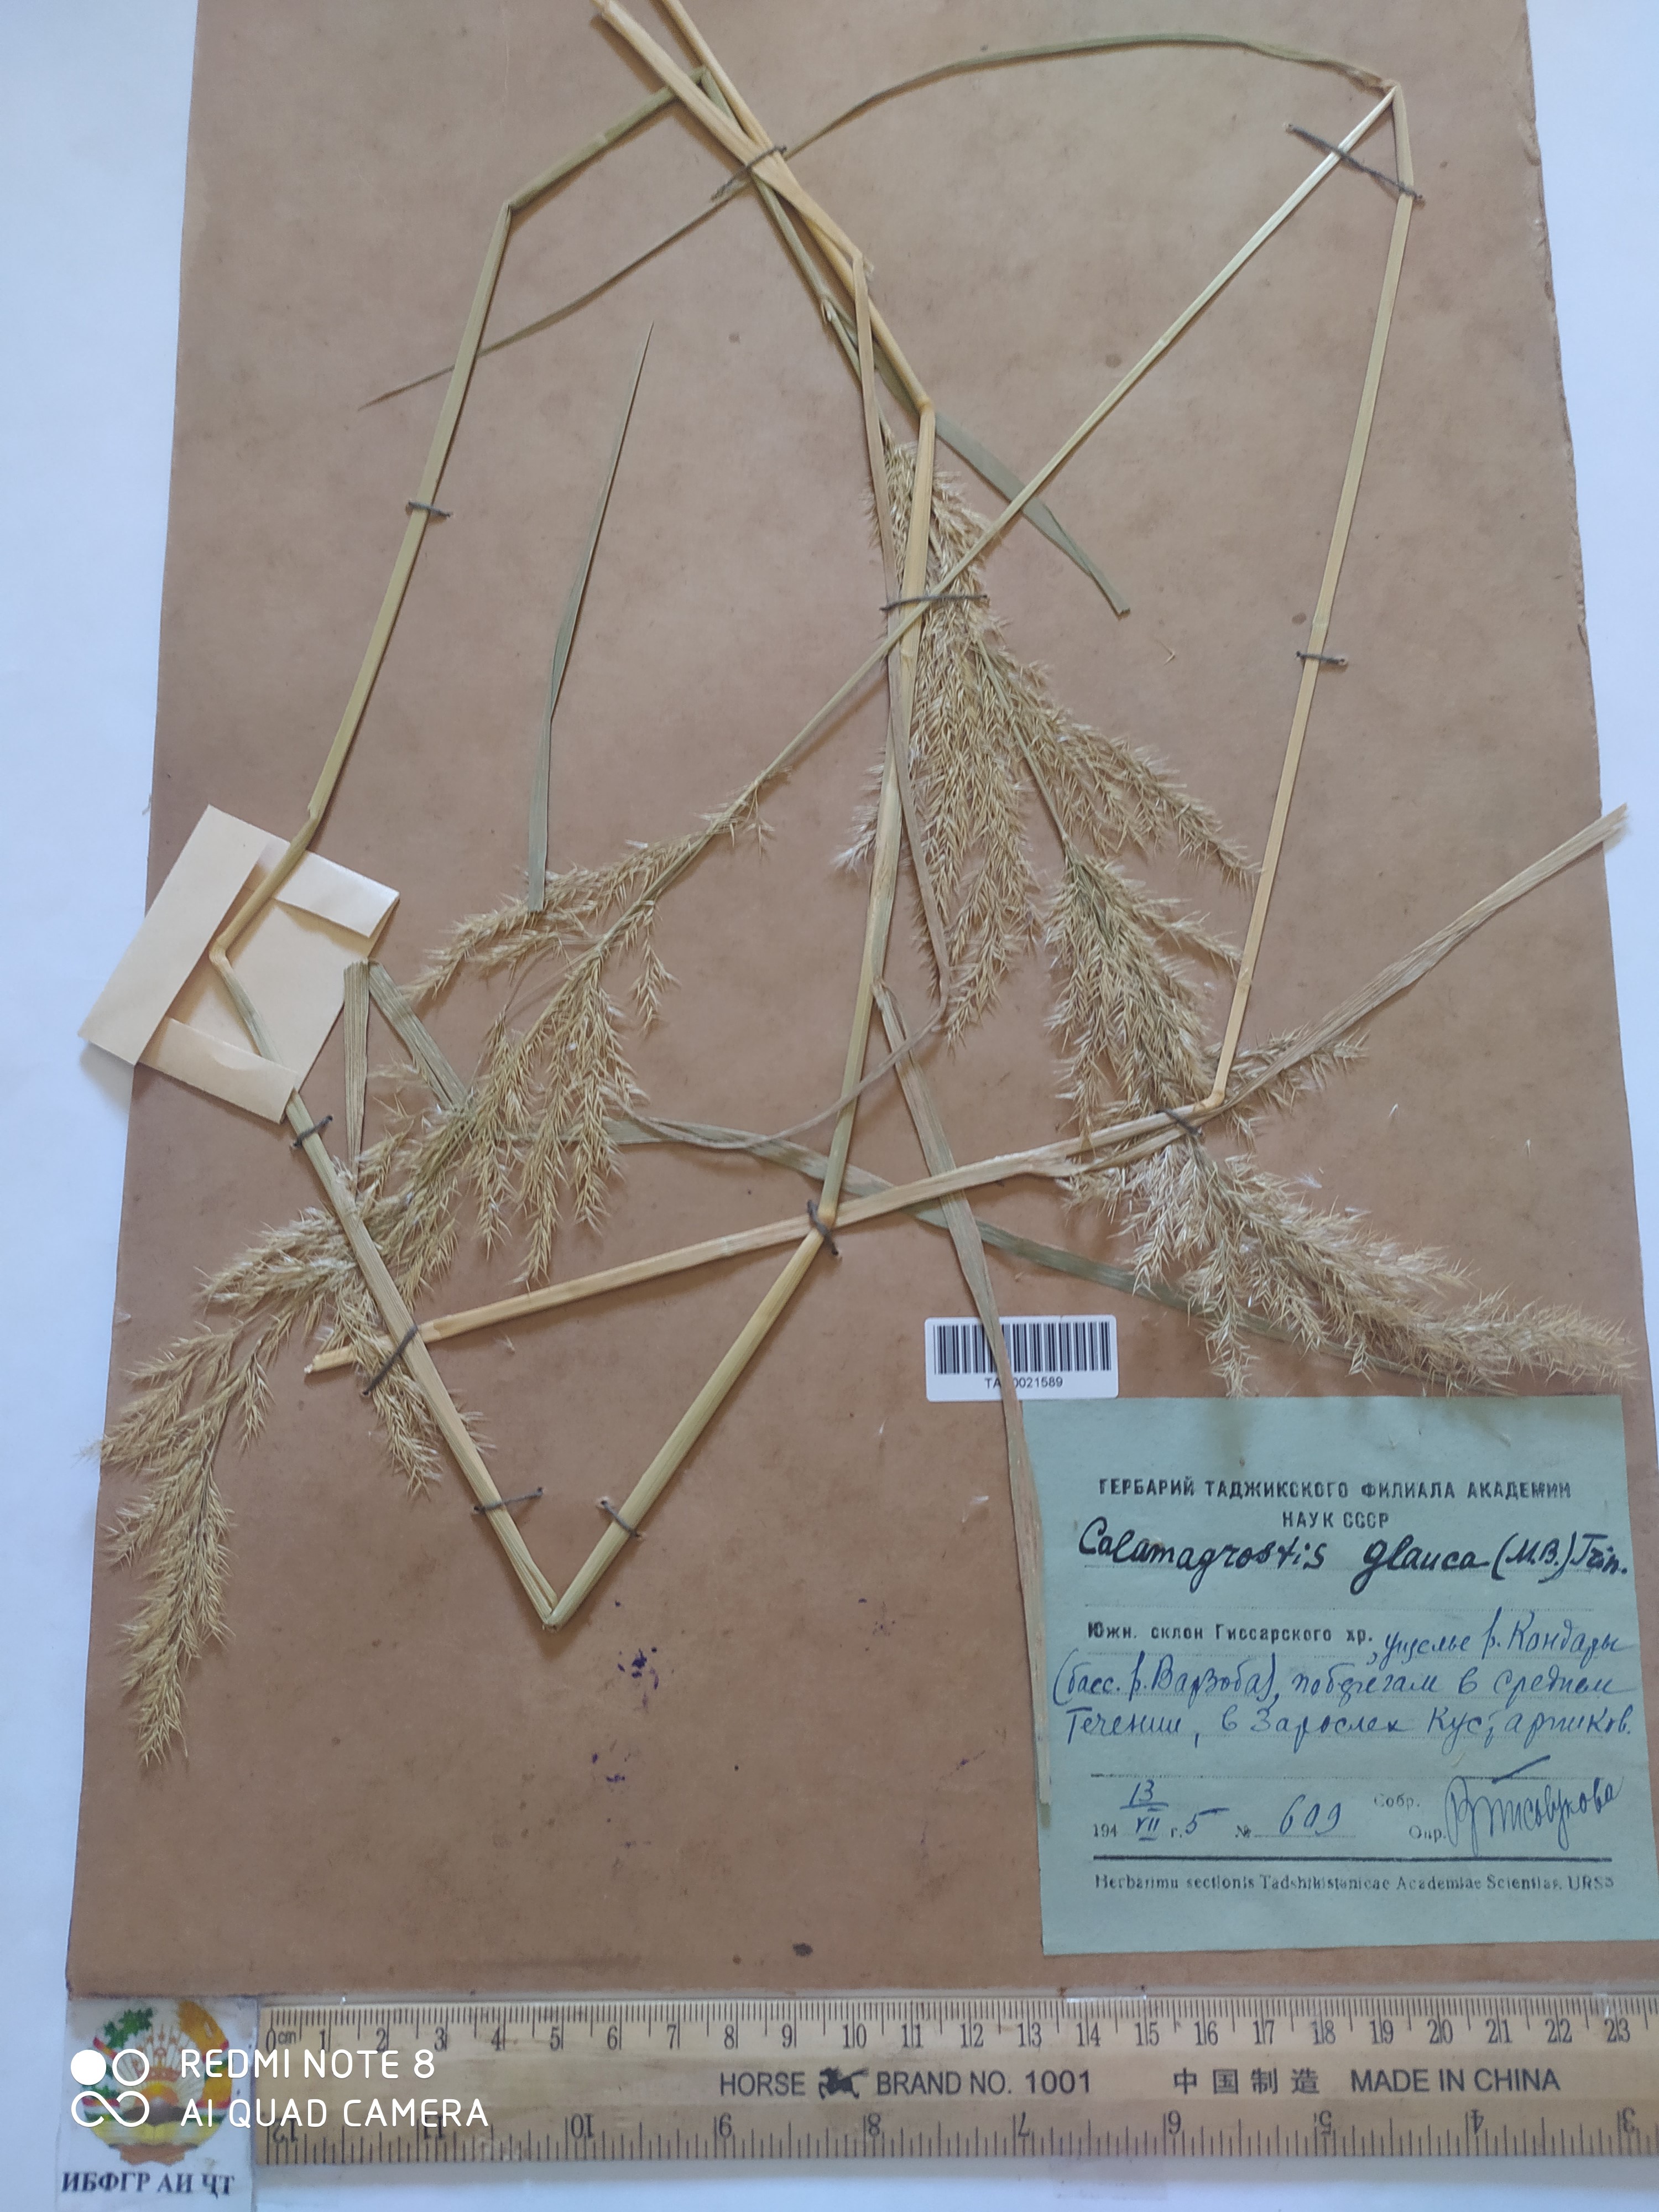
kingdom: Plantae
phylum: Tracheophyta
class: Liliopsida
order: Poales
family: Poaceae
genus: Calamagrostis
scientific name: Calamagrostis pseudophragmites
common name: Coastal small-reed
